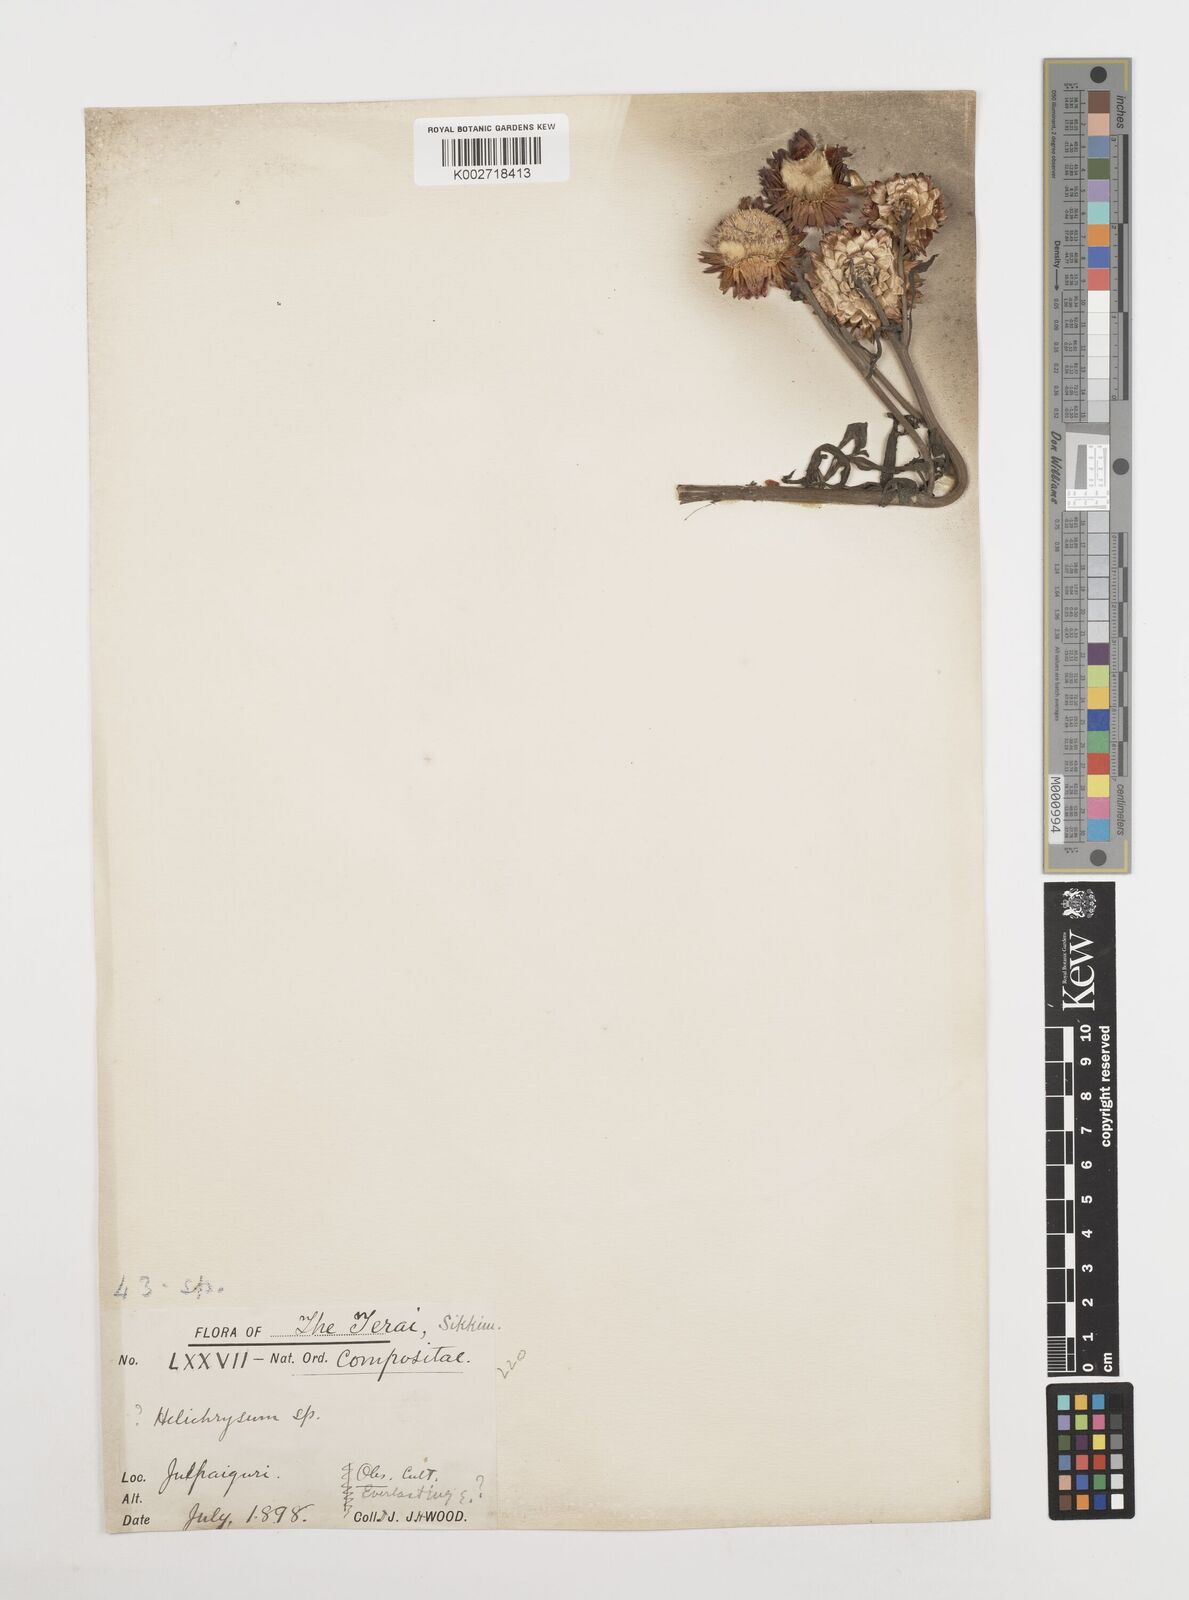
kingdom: Plantae
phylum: Tracheophyta
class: Magnoliopsida
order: Asterales
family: Asteraceae
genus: Xerochrysum
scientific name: Xerochrysum bracteatum
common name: Bracted strawflower
